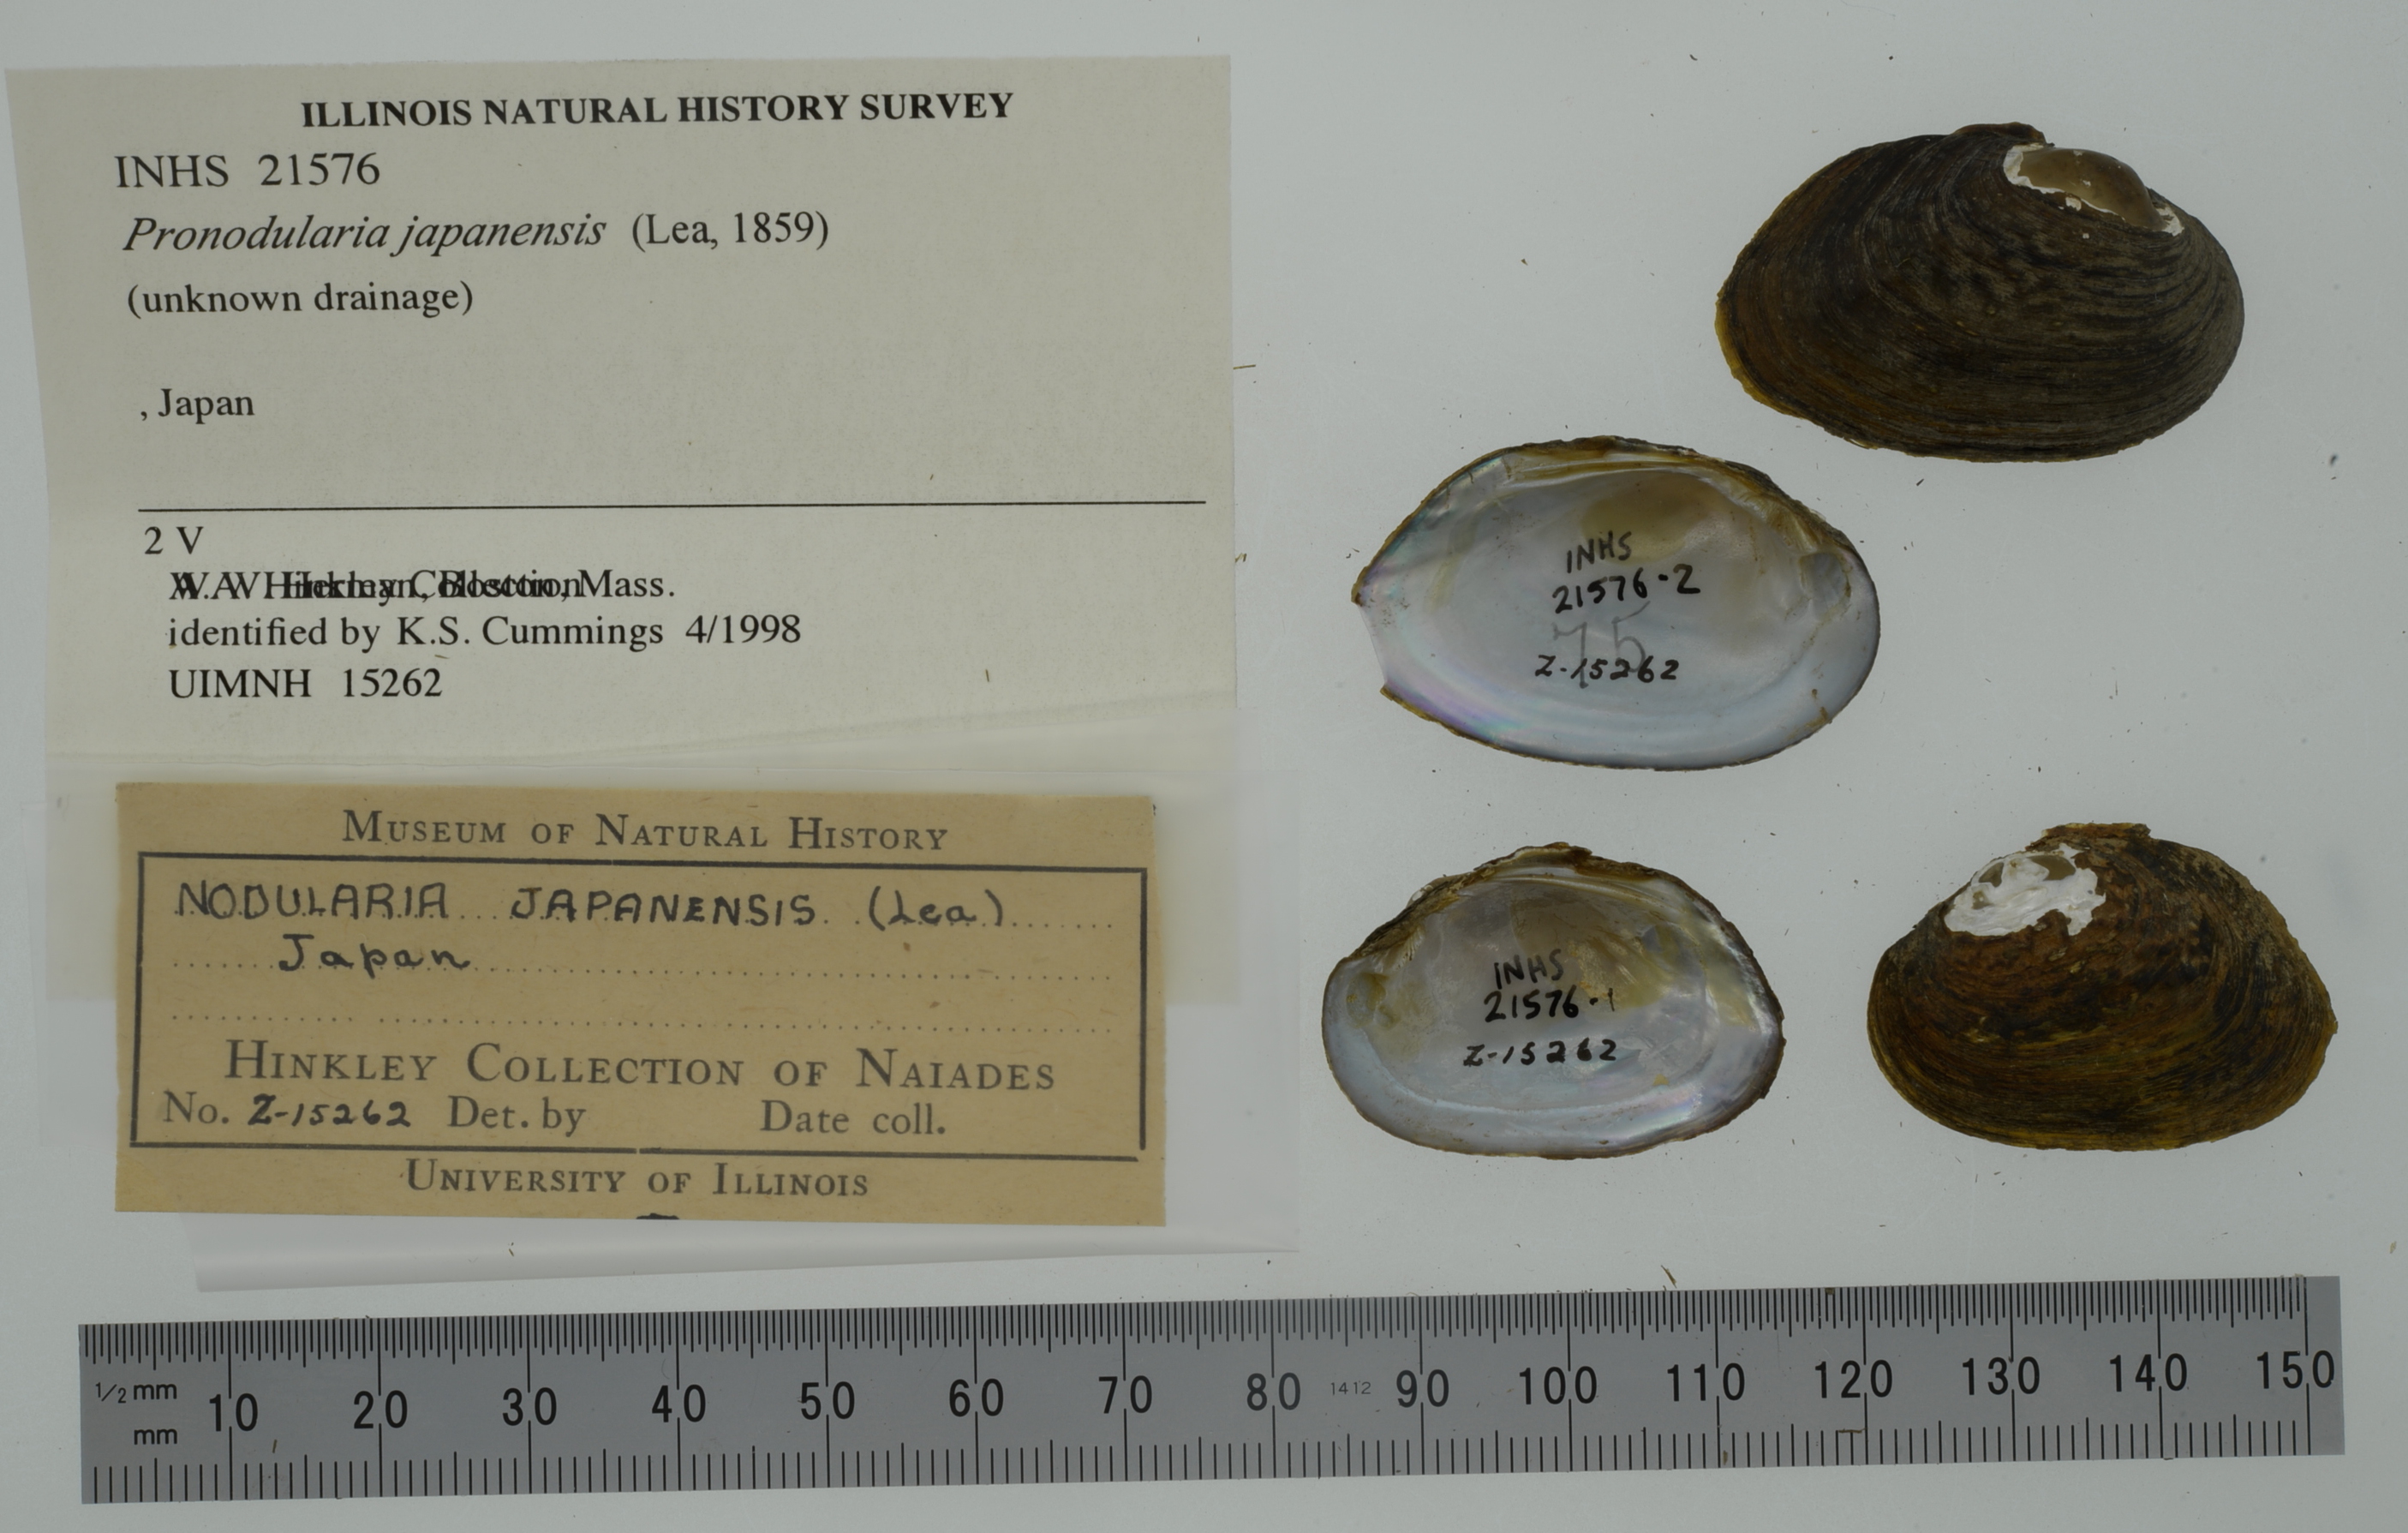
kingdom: Animalia
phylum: Mollusca
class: Bivalvia
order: Unionida
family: Unionidae
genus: Pronodularia
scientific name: Pronodularia japanensis
